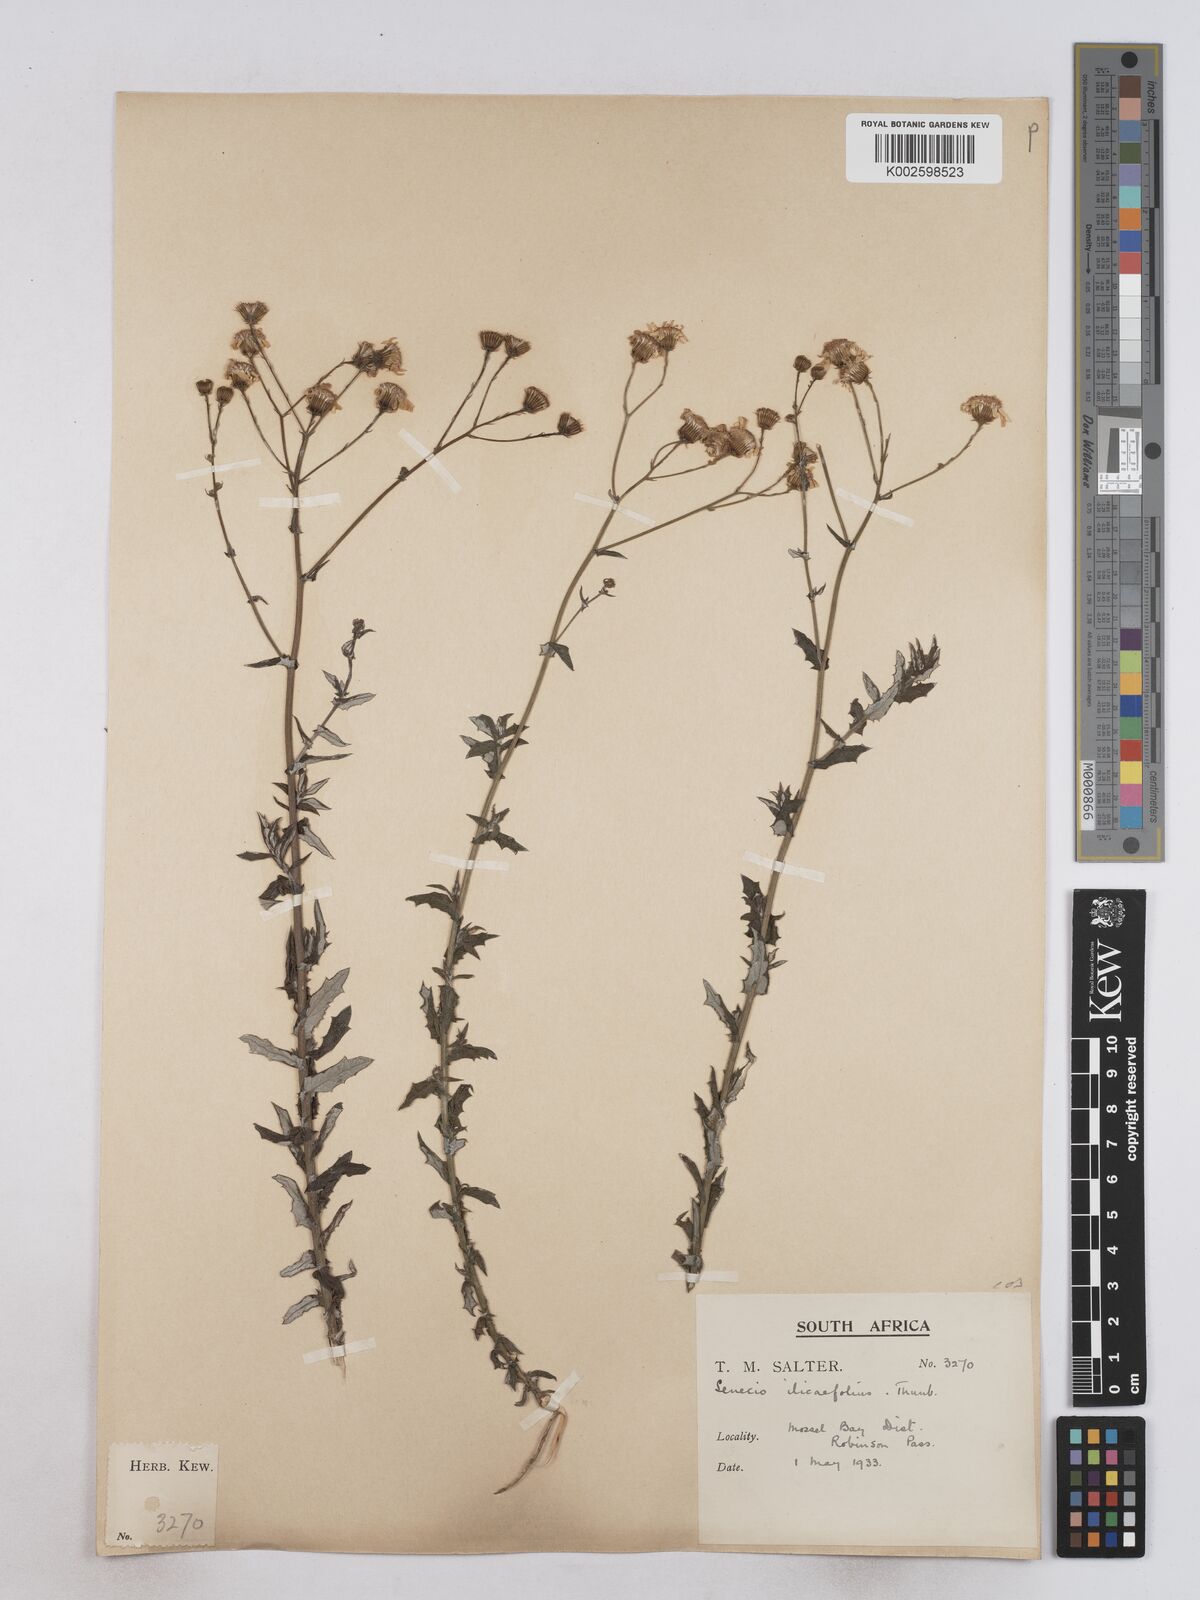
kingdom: Plantae
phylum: Tracheophyta
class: Magnoliopsida
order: Asterales
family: Asteraceae
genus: Senecio
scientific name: Senecio ilicifolius
